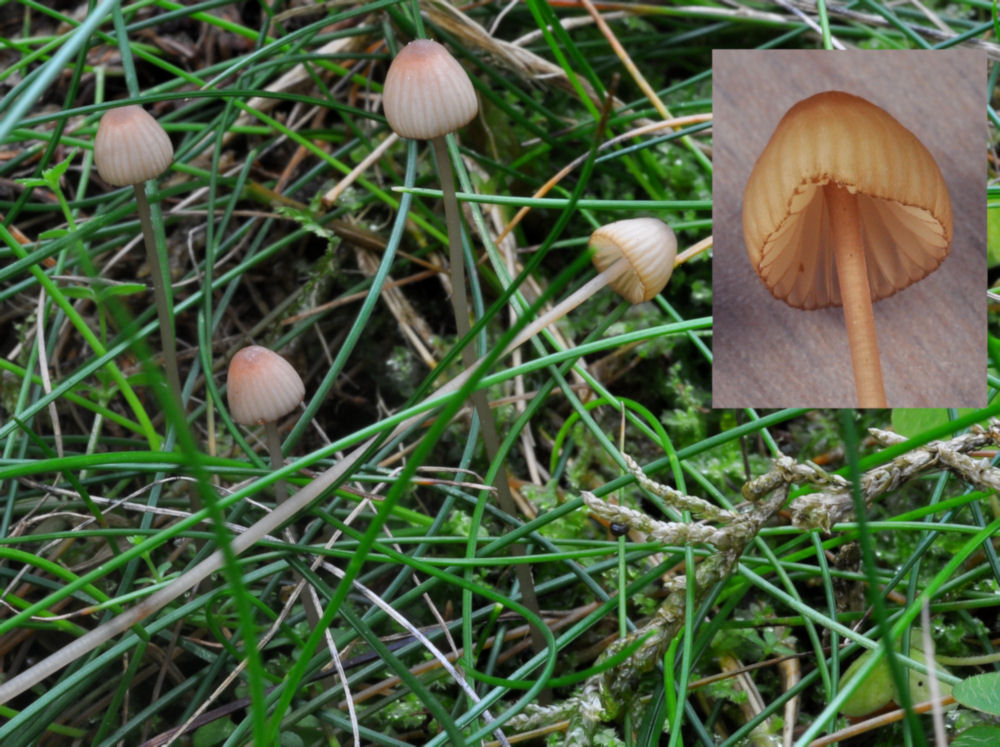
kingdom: Fungi
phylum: Basidiomycota
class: Agaricomycetes
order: Agaricales
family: Mycenaceae
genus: Mycena
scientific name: Mycena sanguinolenta
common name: rødmælket huesvamp
